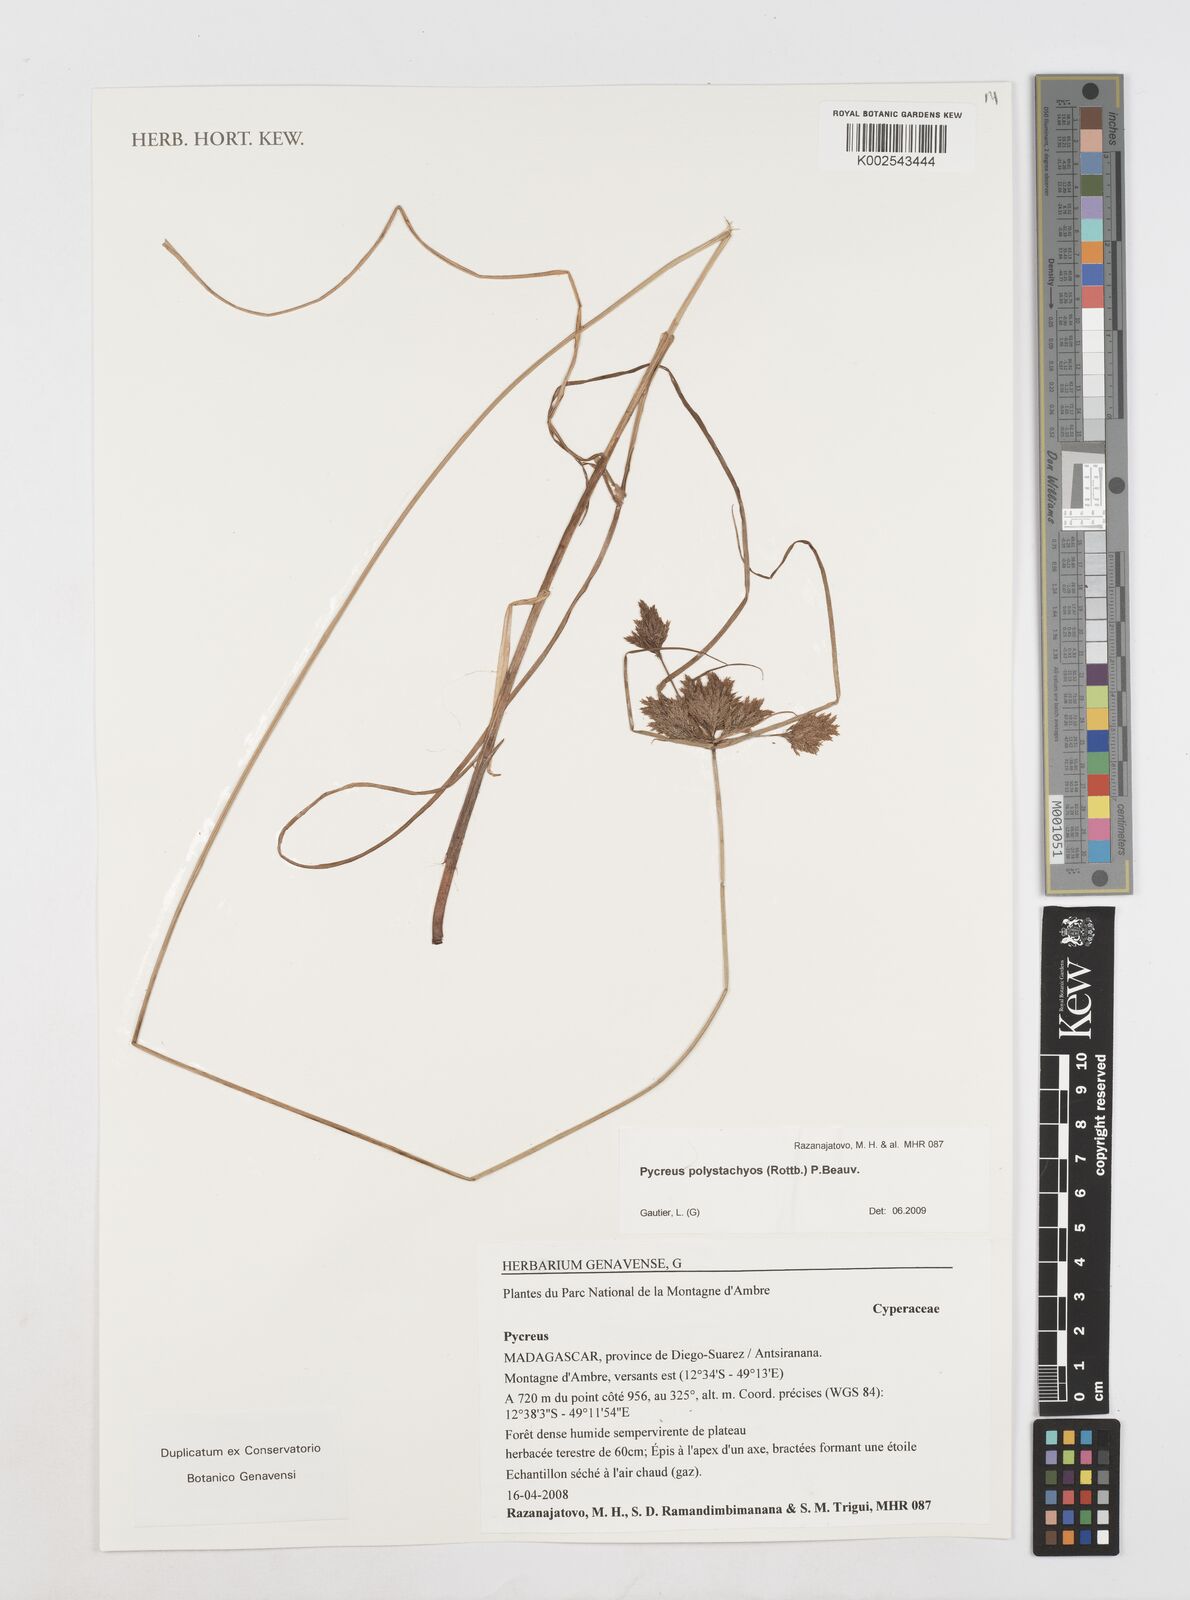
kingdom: Plantae
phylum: Tracheophyta
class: Liliopsida
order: Poales
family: Cyperaceae
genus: Cyperus
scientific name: Cyperus polystachyos
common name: Bunchy flat sedge
